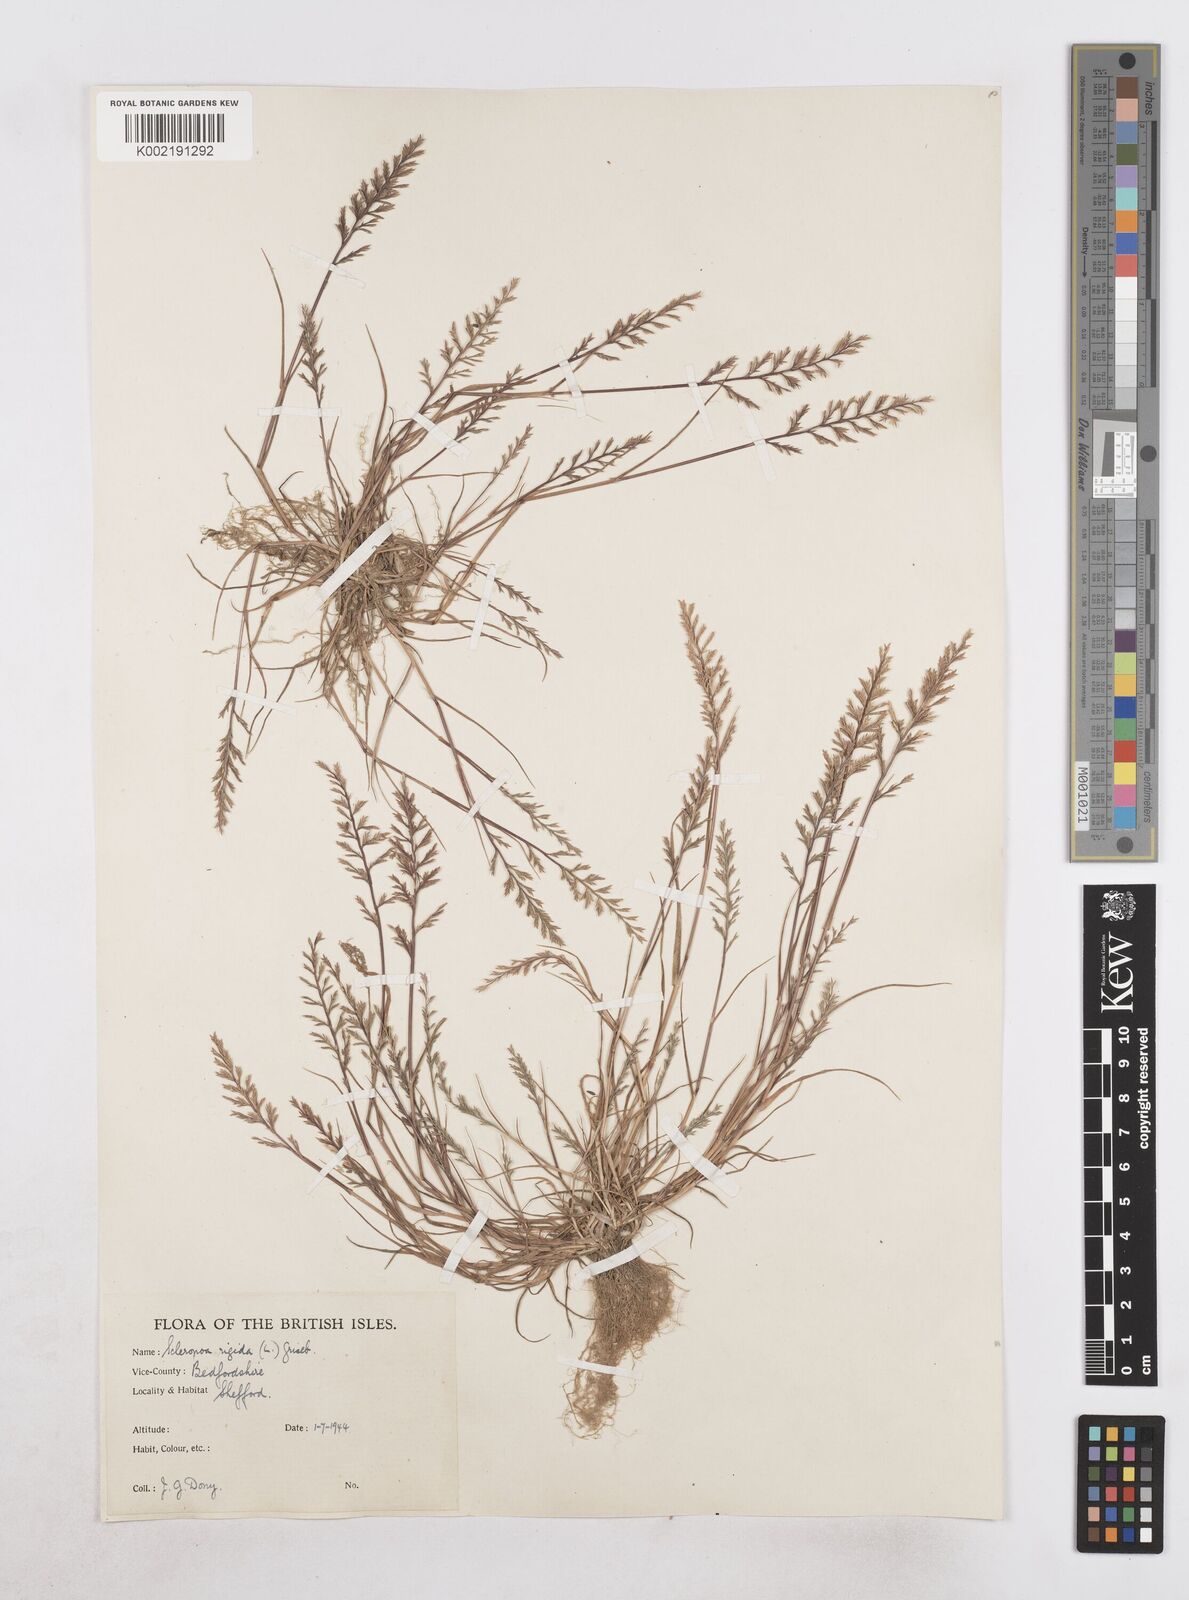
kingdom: Plantae
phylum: Tracheophyta
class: Liliopsida
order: Poales
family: Poaceae
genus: Catapodium
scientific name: Catapodium rigidum
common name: Fern-grass
